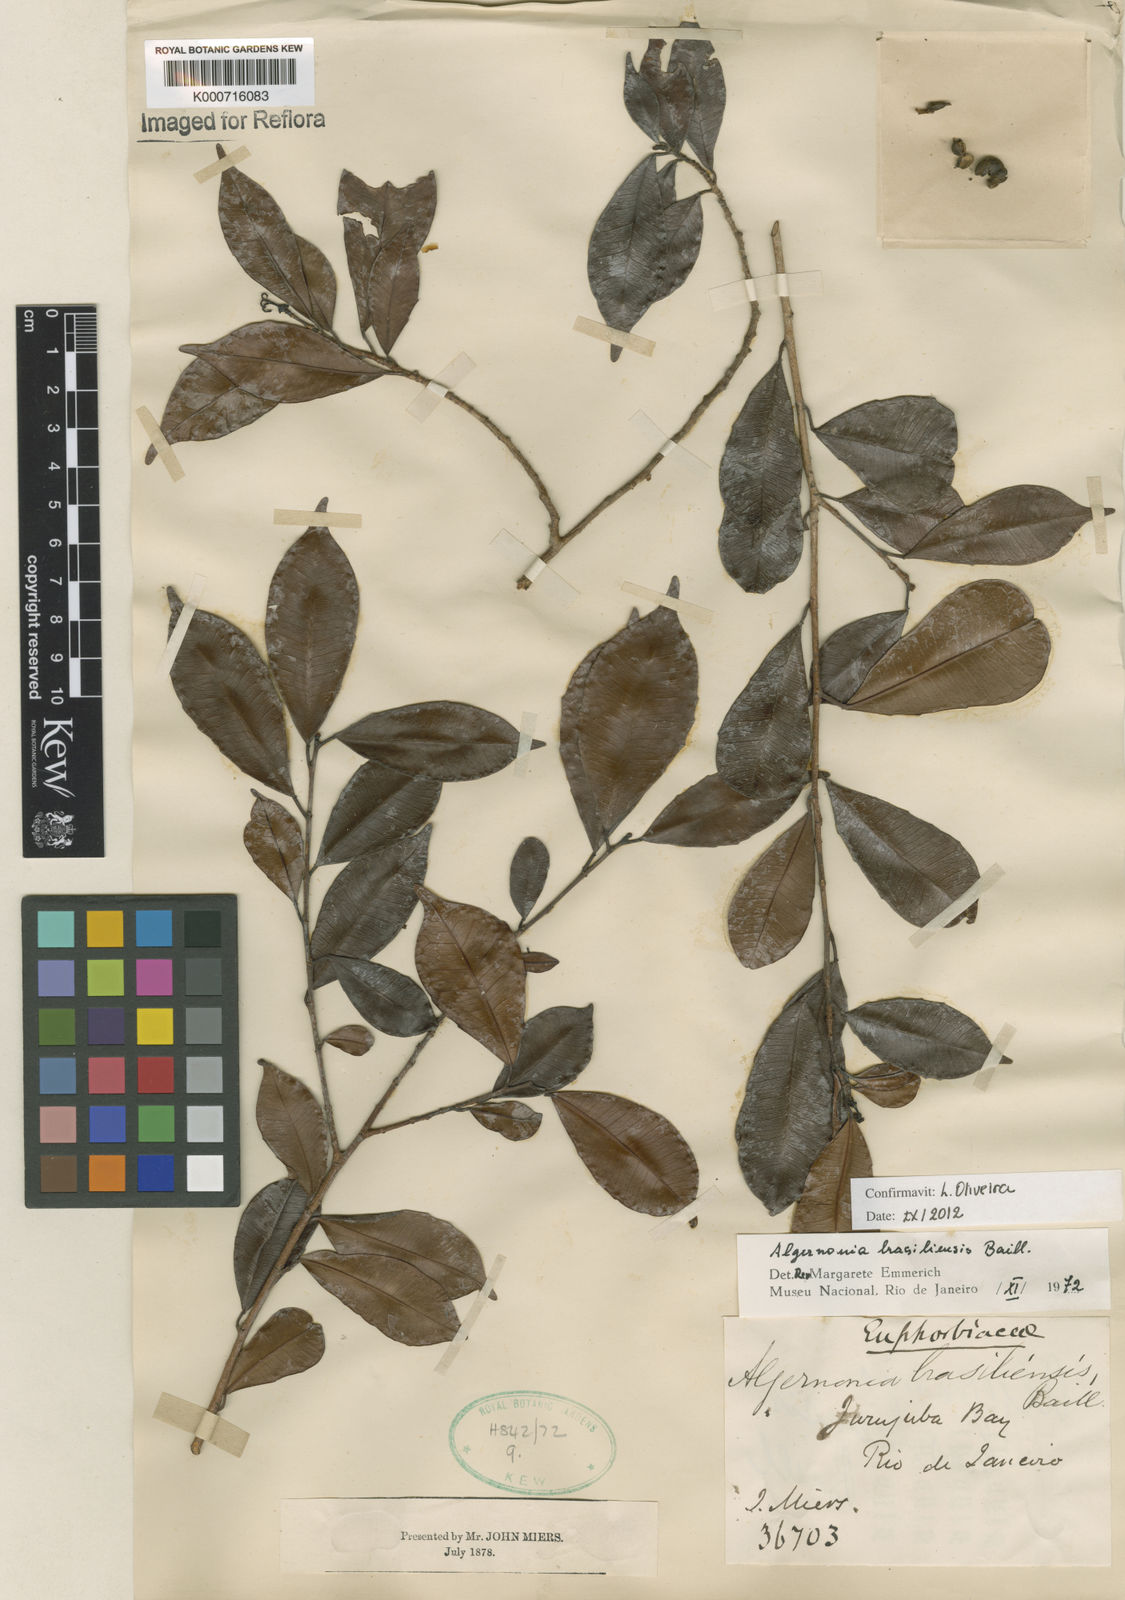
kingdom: Plantae
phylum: Tracheophyta
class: Magnoliopsida
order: Malpighiales
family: Euphorbiaceae
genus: Algernonia
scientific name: Algernonia brasiliensis
